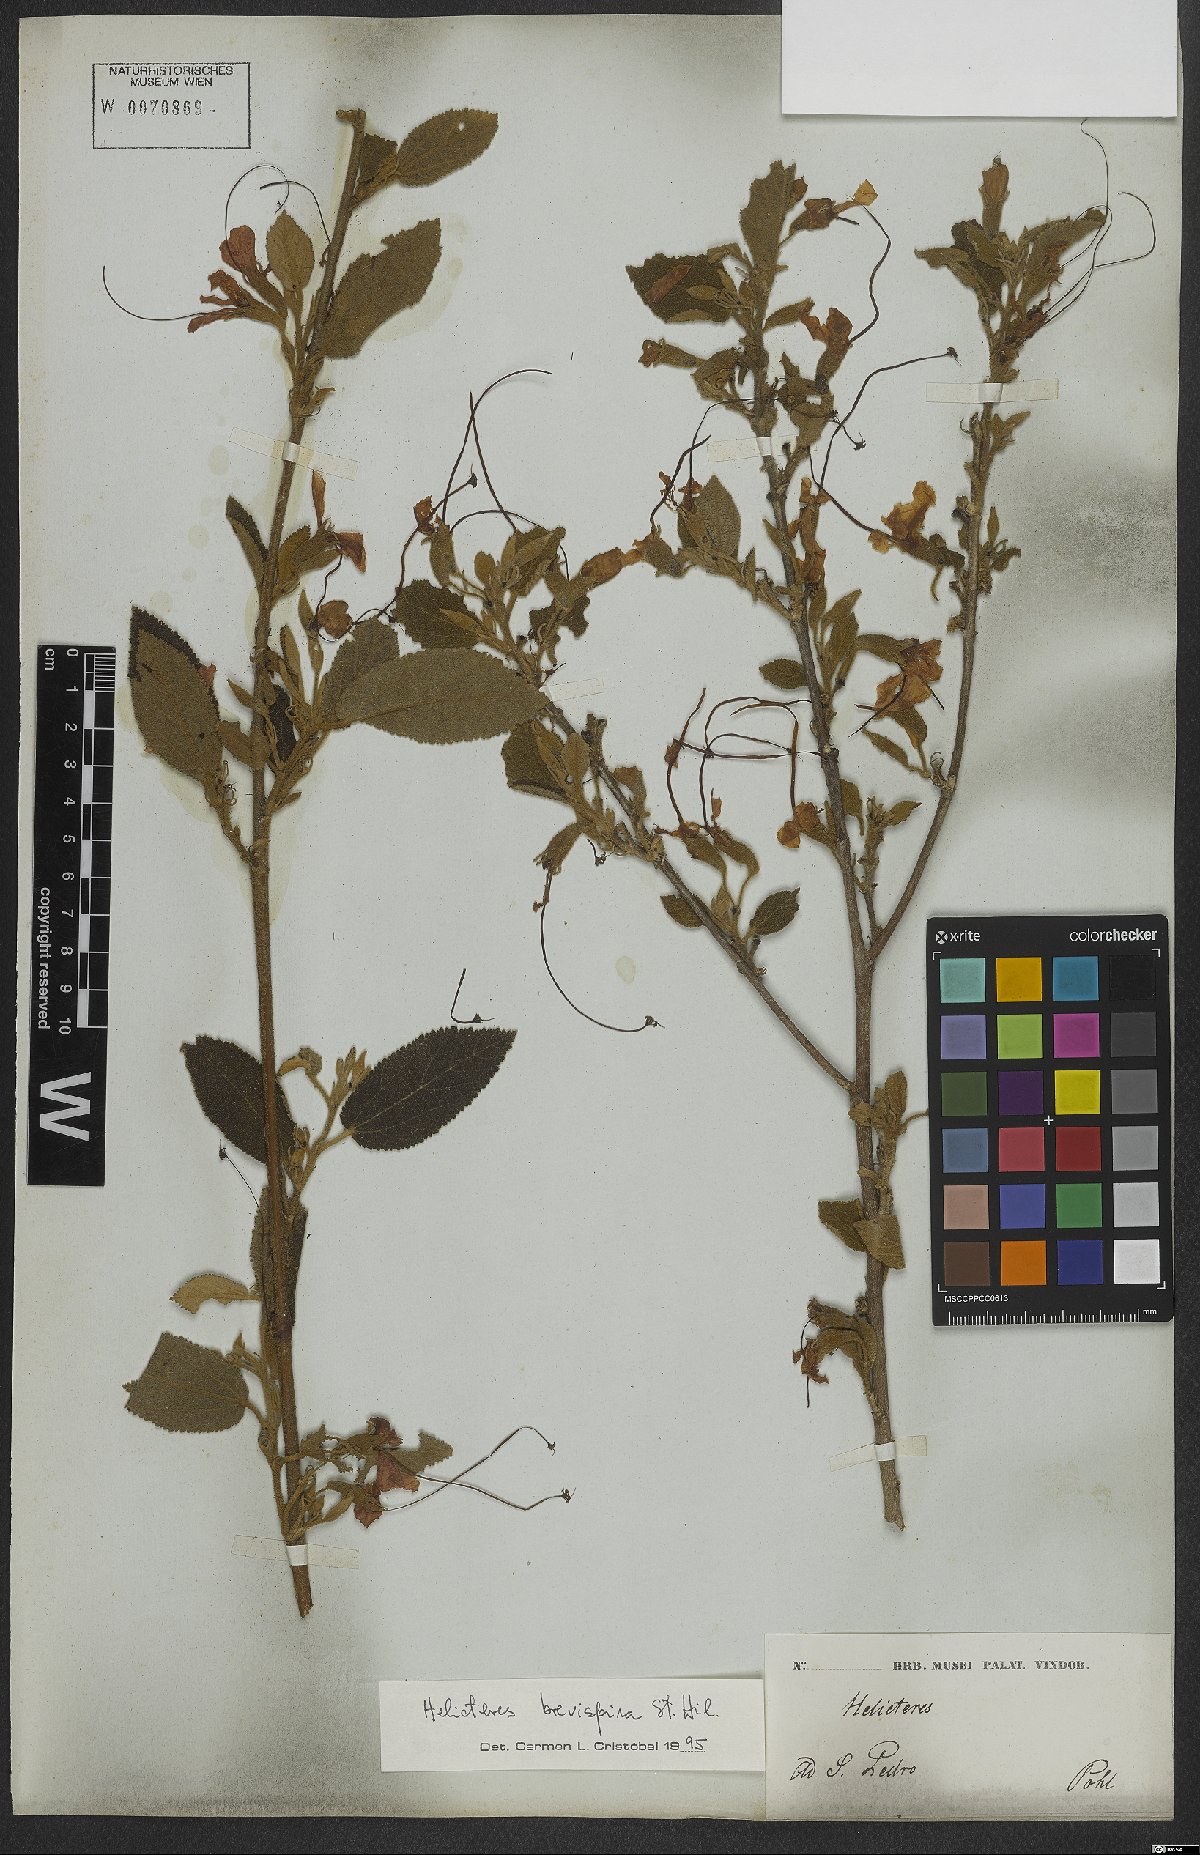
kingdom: Plantae
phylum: Tracheophyta
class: Magnoliopsida
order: Malvales
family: Malvaceae
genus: Helicteres
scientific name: Helicteres brevispira
